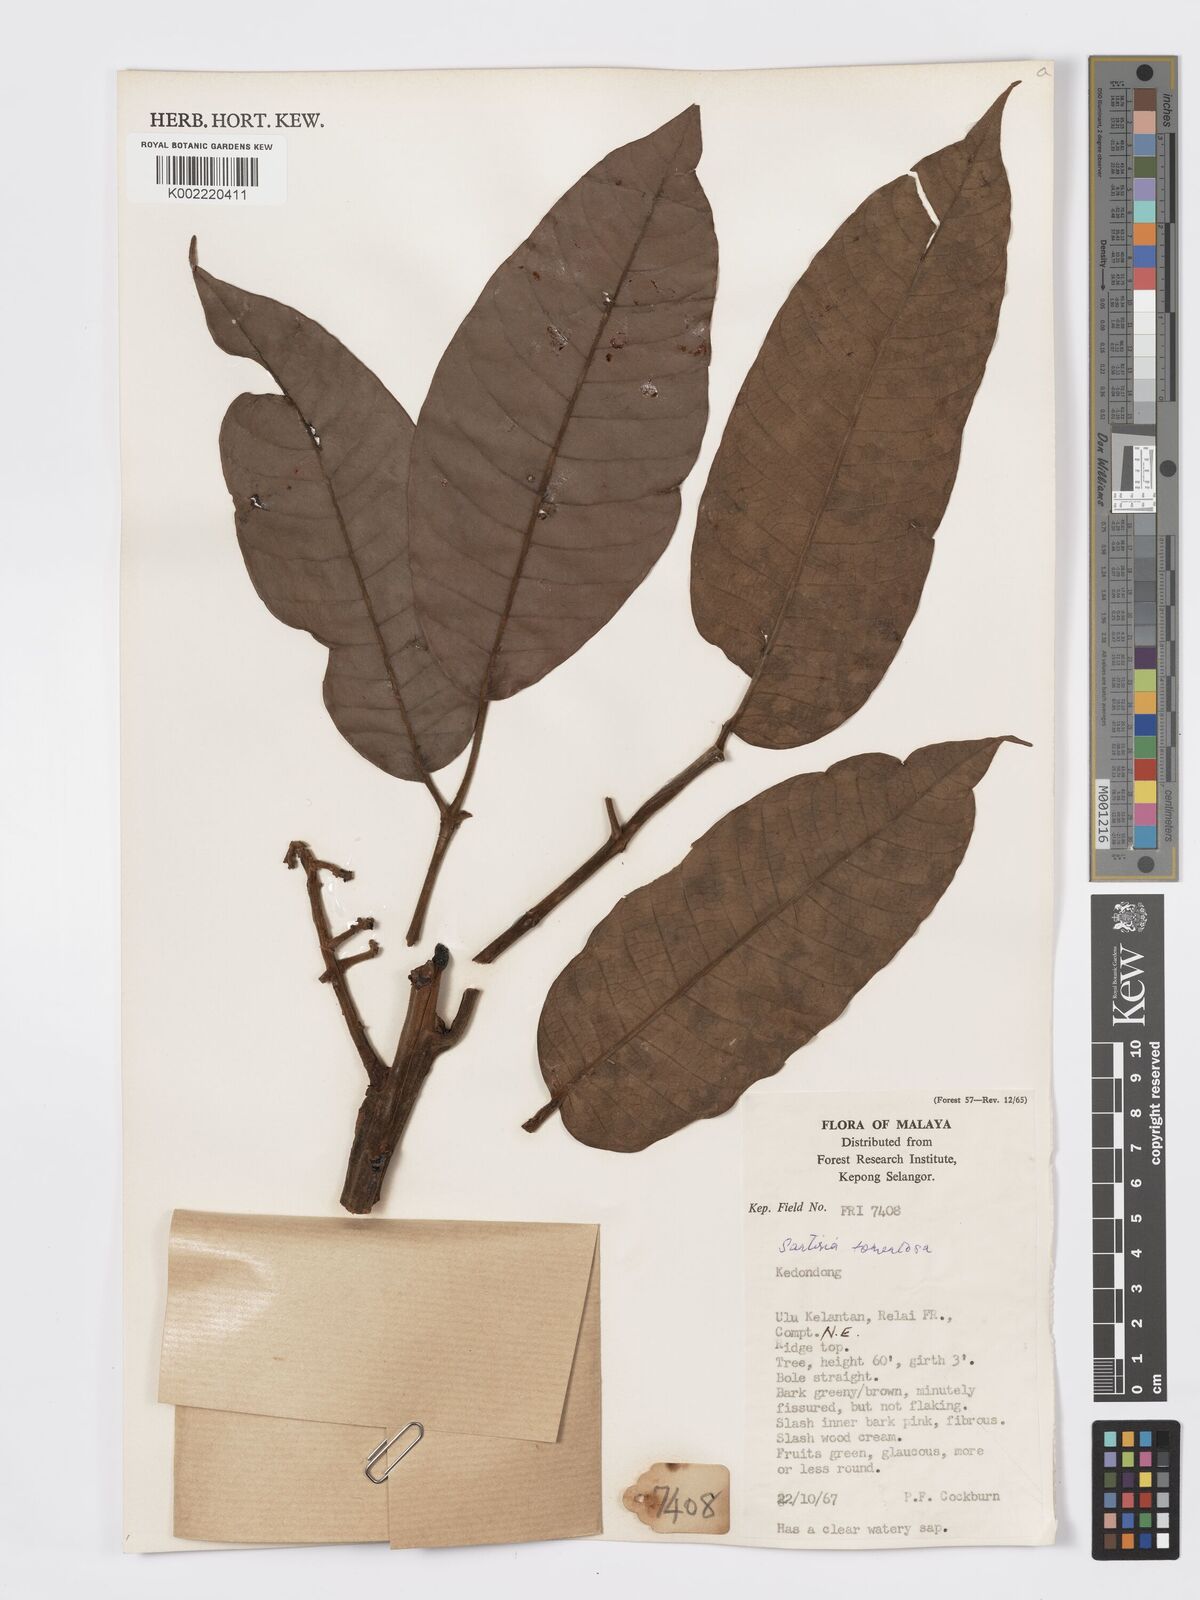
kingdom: Plantae
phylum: Tracheophyta
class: Magnoliopsida
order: Sapindales
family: Burseraceae
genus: Santiria
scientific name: Santiria tomentosa
